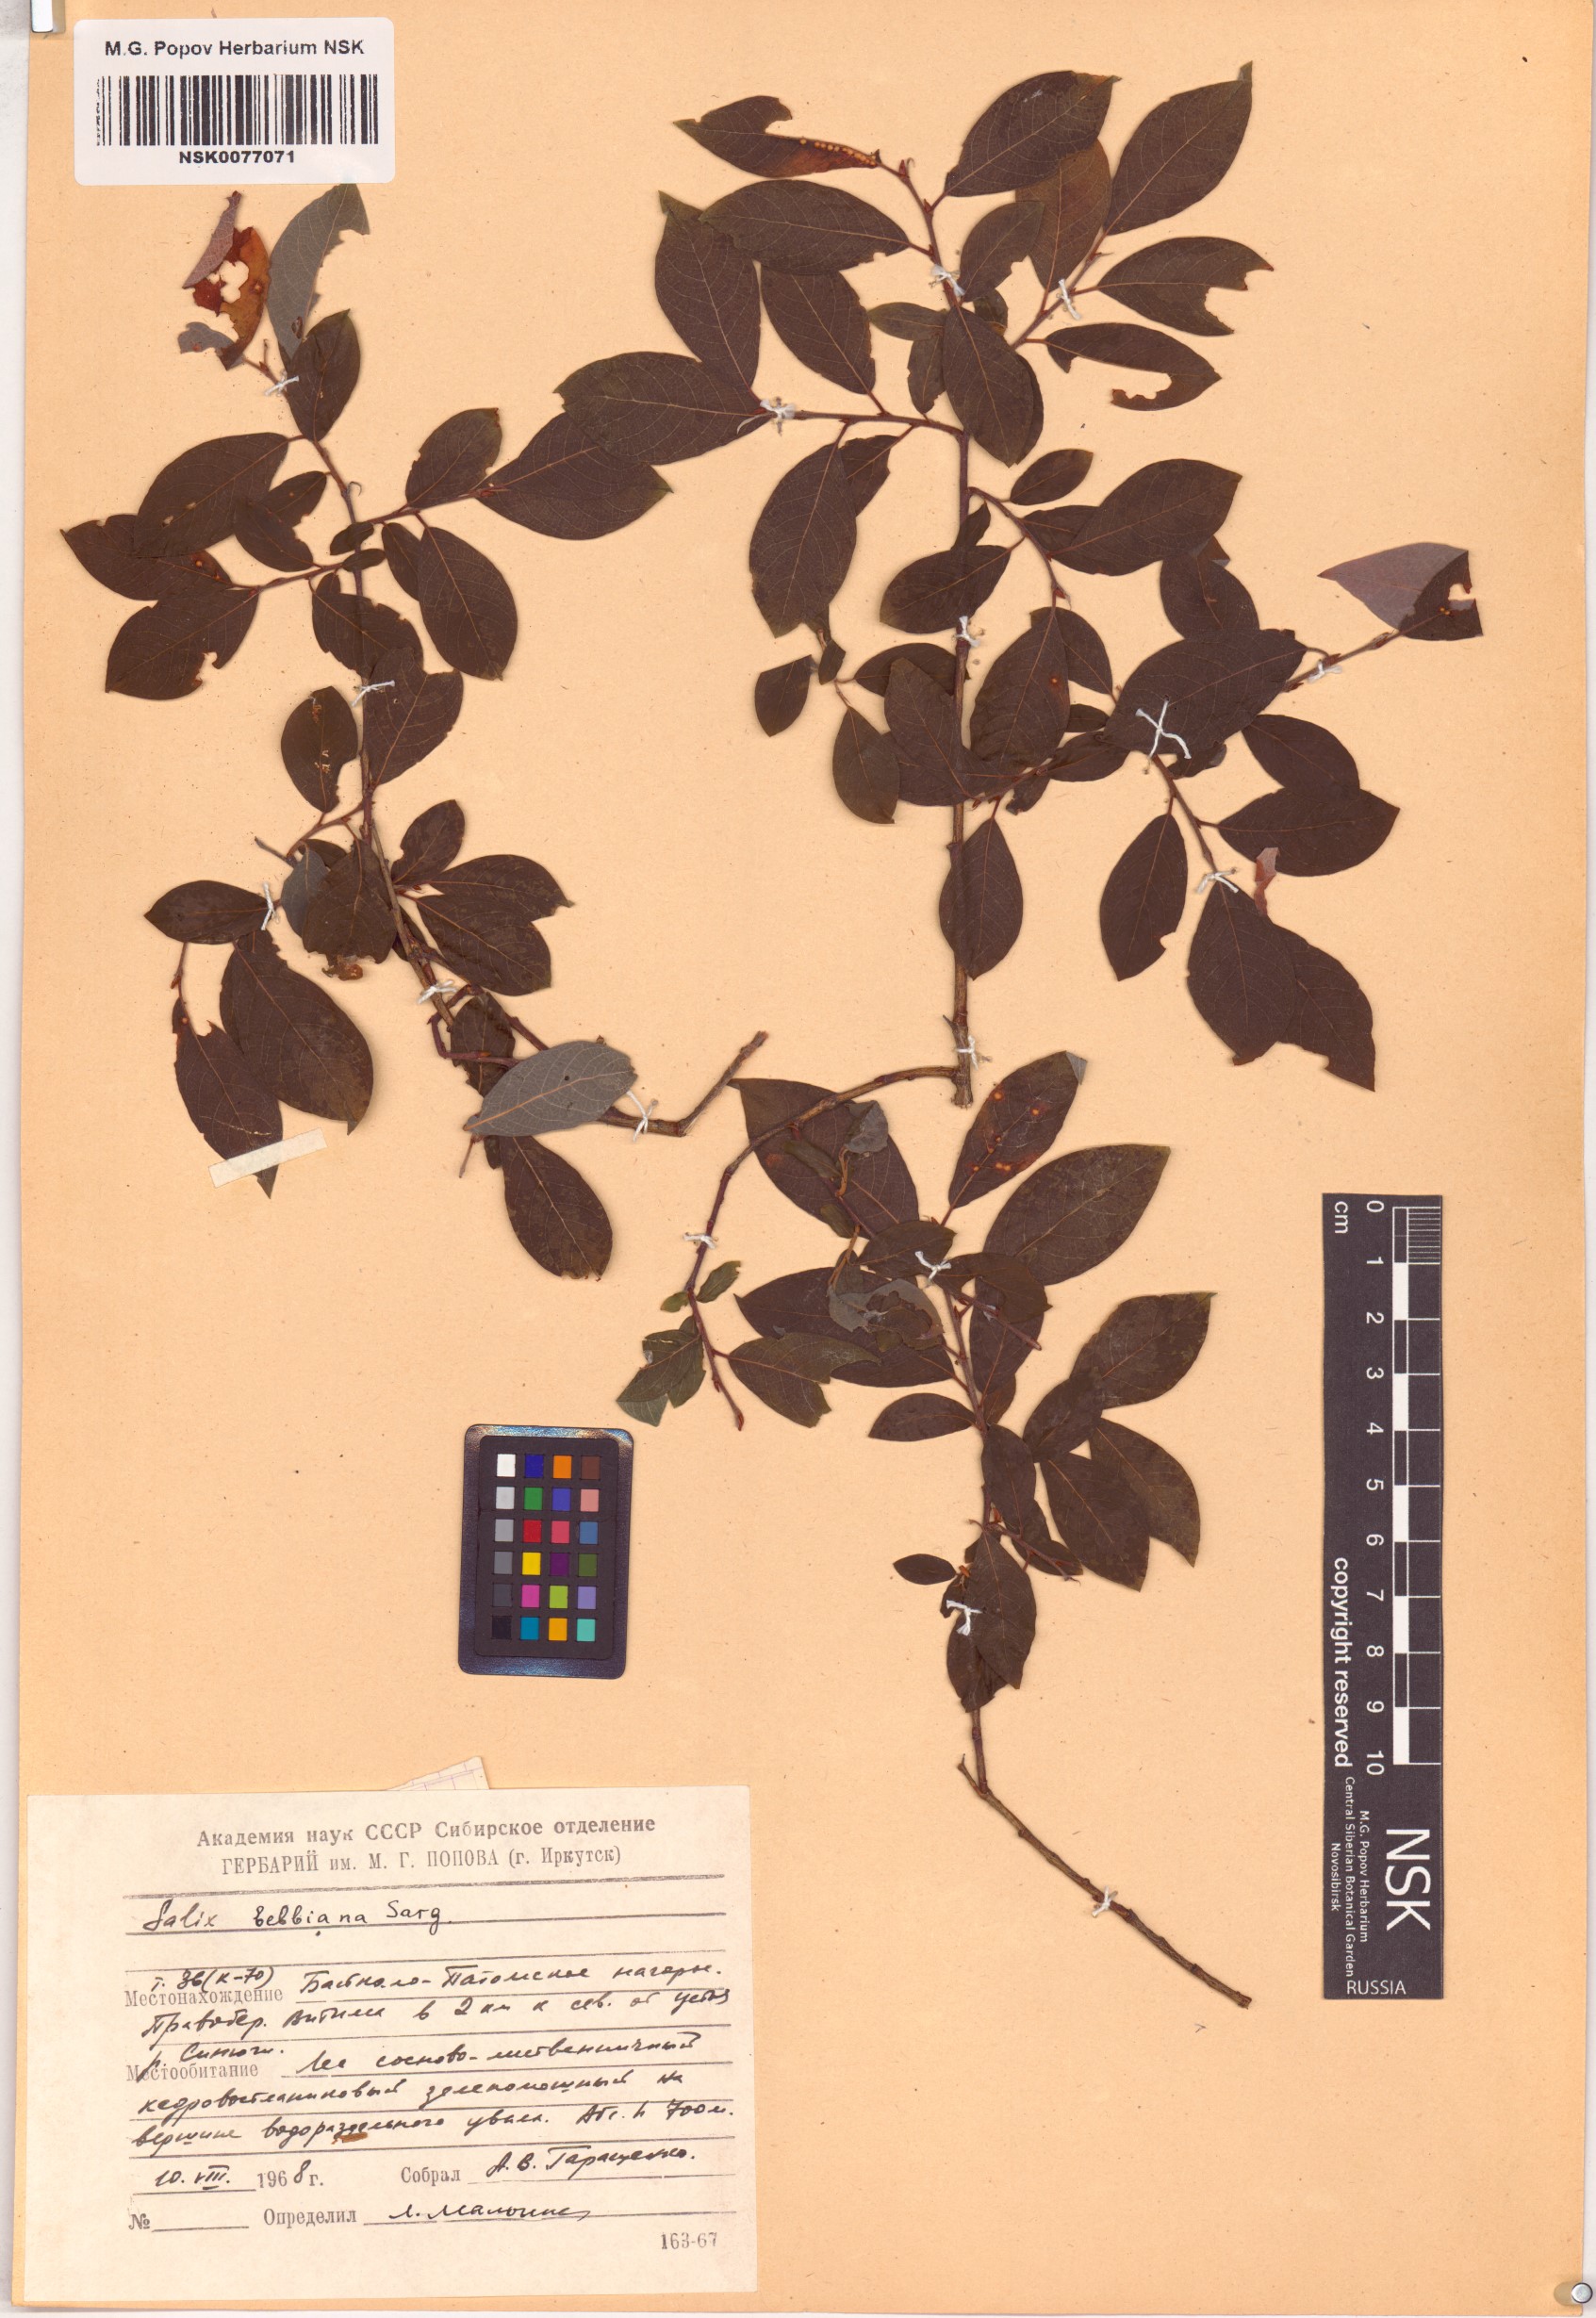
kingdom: Plantae
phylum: Tracheophyta
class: Magnoliopsida
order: Malpighiales
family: Salicaceae
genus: Salix
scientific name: Salix bebbiana
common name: Bebb's willow
